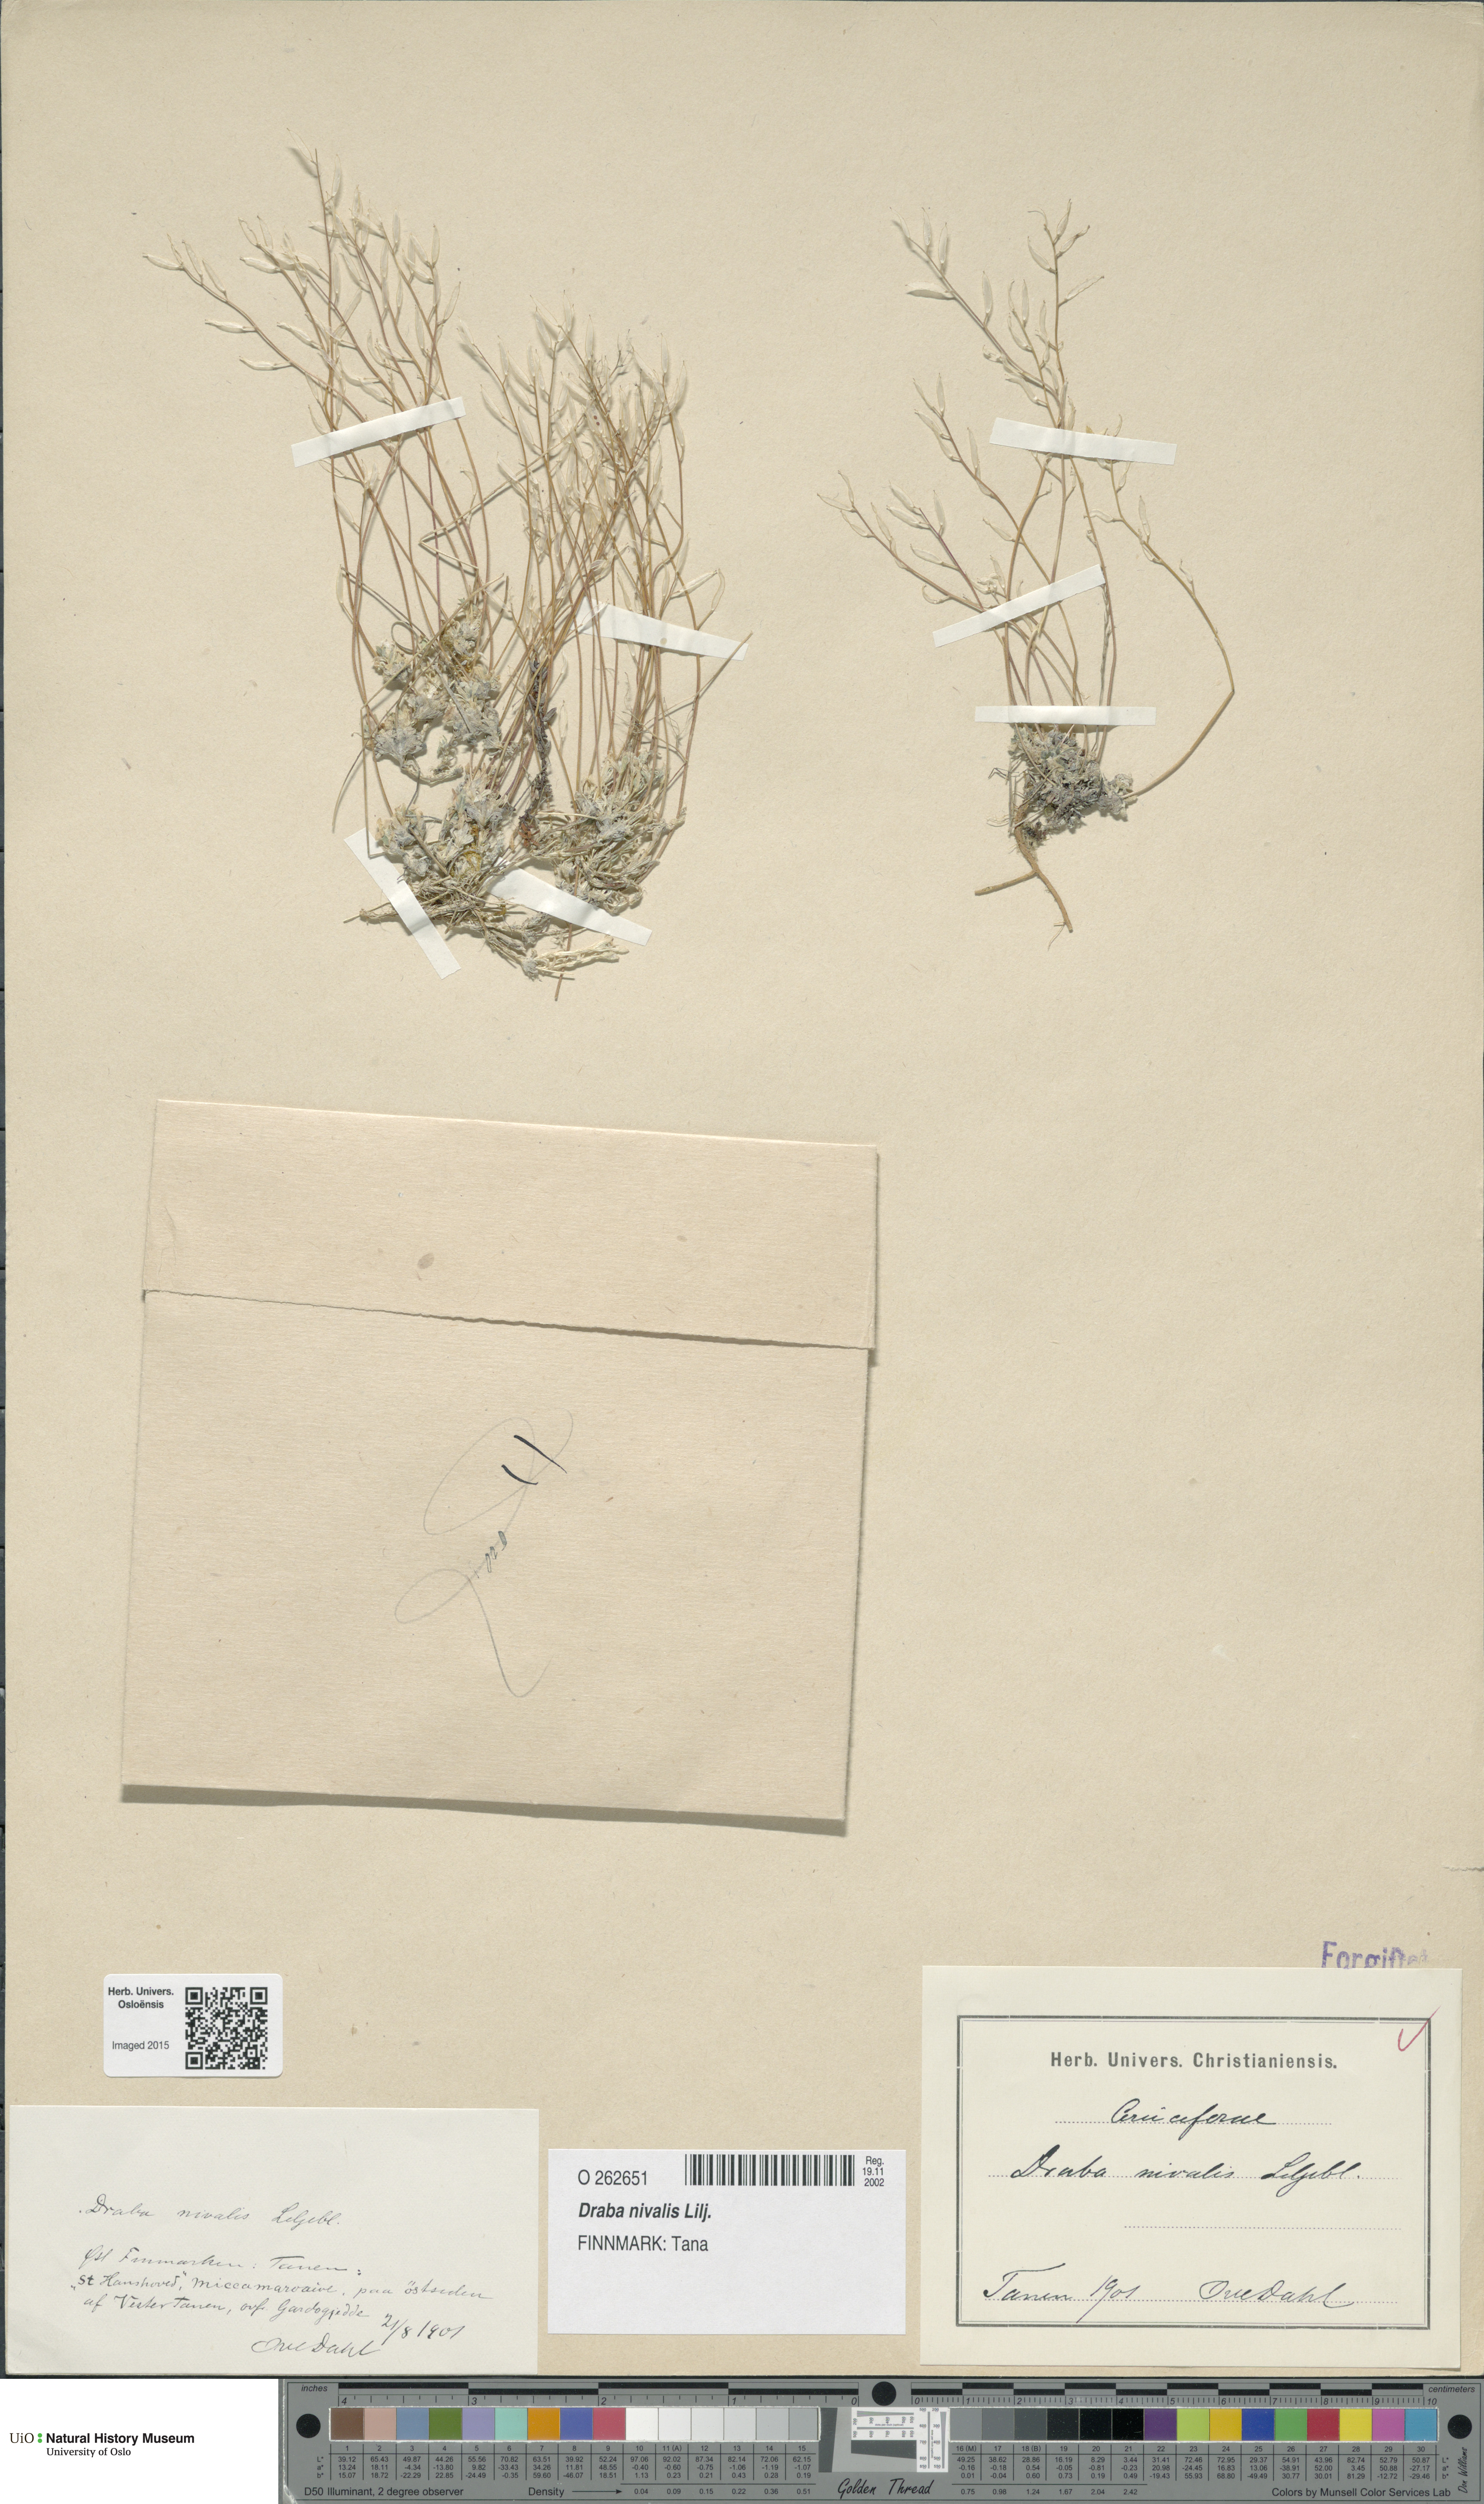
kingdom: Plantae
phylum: Tracheophyta
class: Magnoliopsida
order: Brassicales
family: Brassicaceae
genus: Draba
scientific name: Draba nivalis
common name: Snow draba
